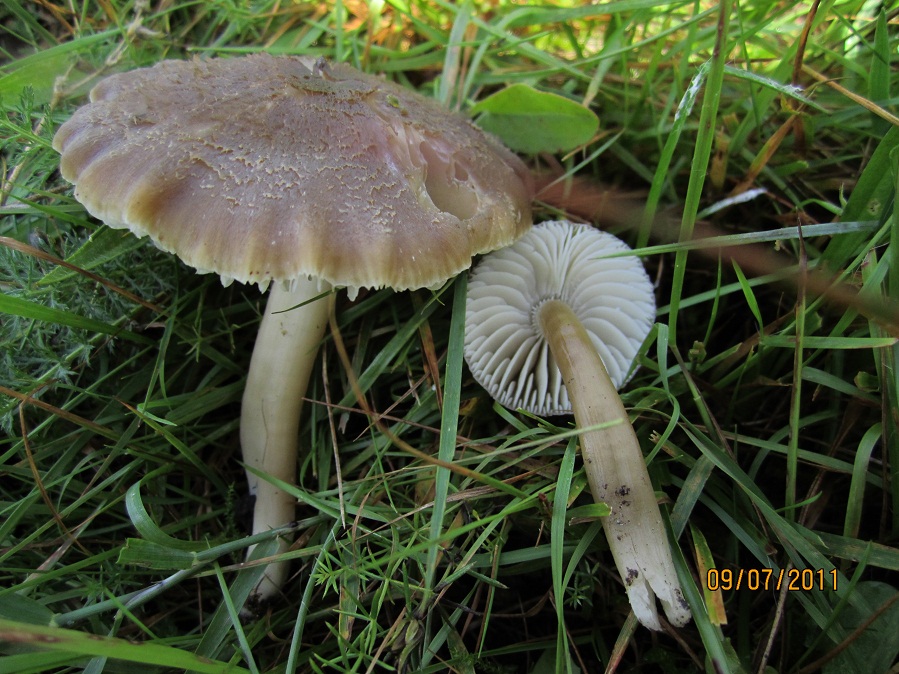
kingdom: Fungi
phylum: Basidiomycota
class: Agaricomycetes
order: Agaricales
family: Hygrophoraceae
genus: Neohygrocybe
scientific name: Neohygrocybe nitrata
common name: stinkende vokshat
